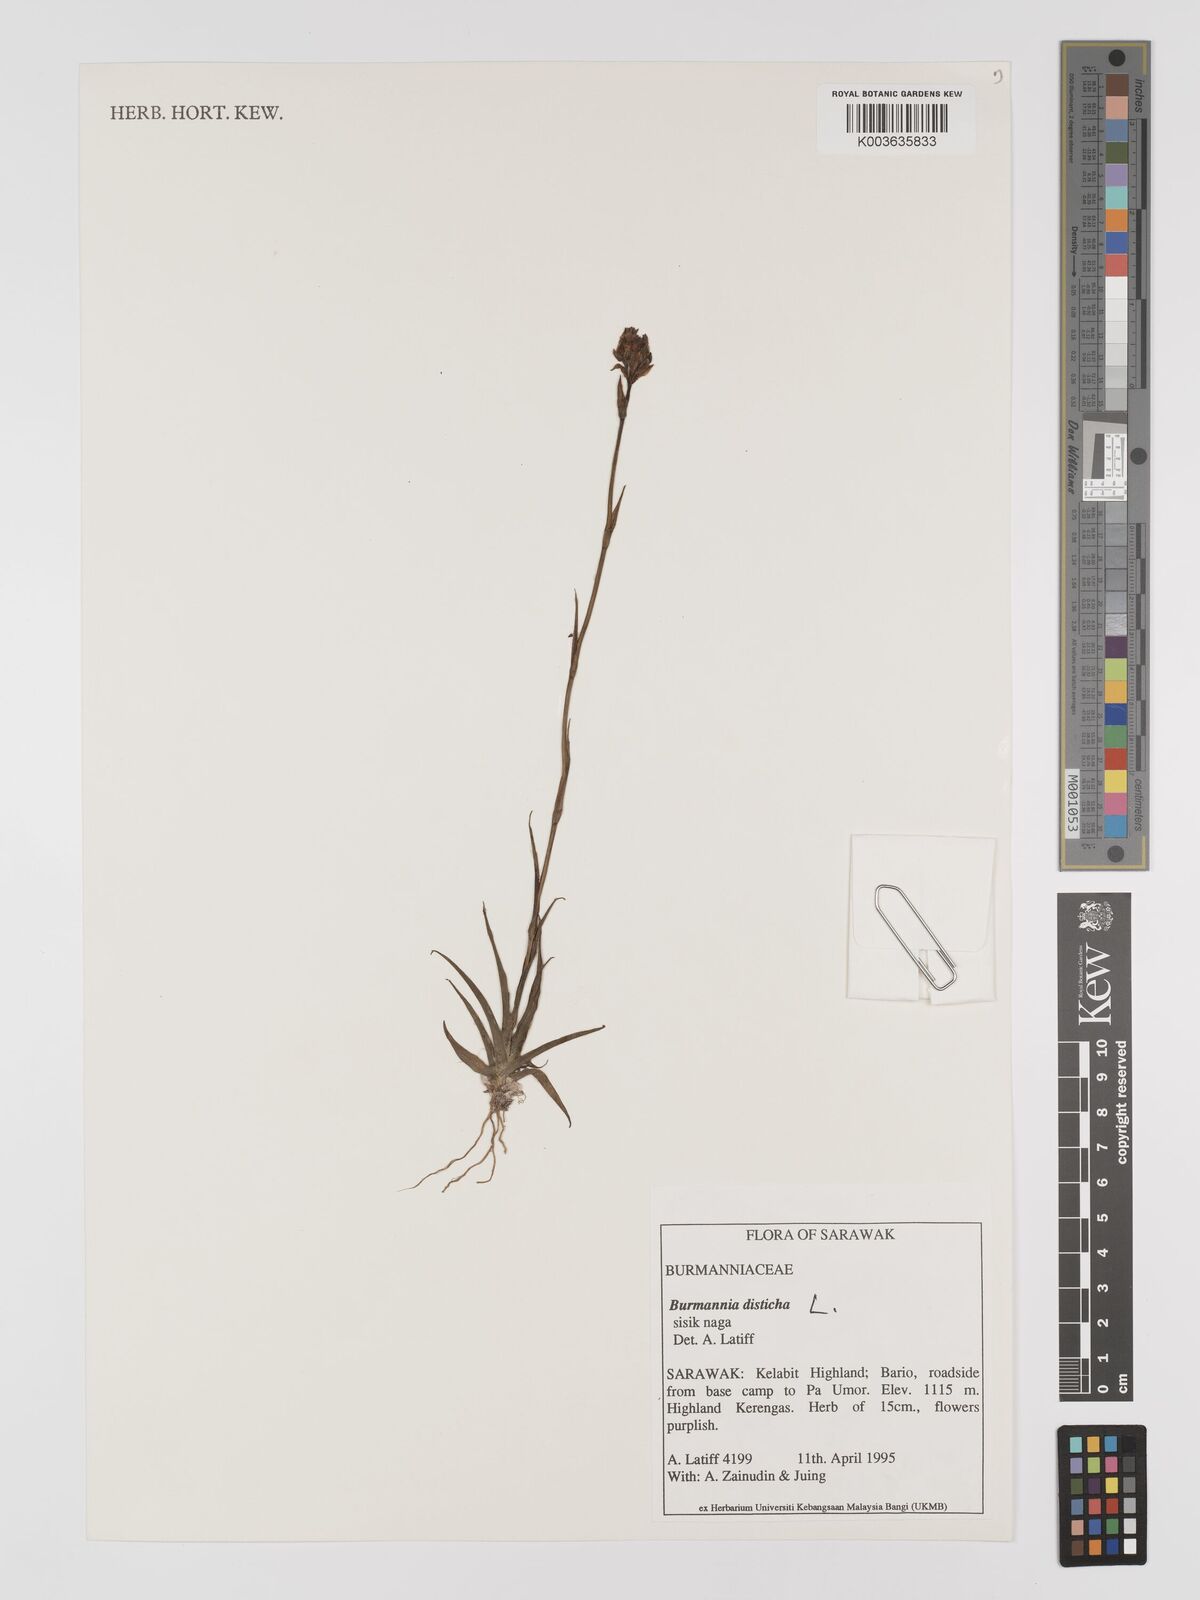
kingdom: Plantae
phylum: Tracheophyta
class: Liliopsida
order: Dioscoreales
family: Burmanniaceae
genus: Burmannia
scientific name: Burmannia disticha
